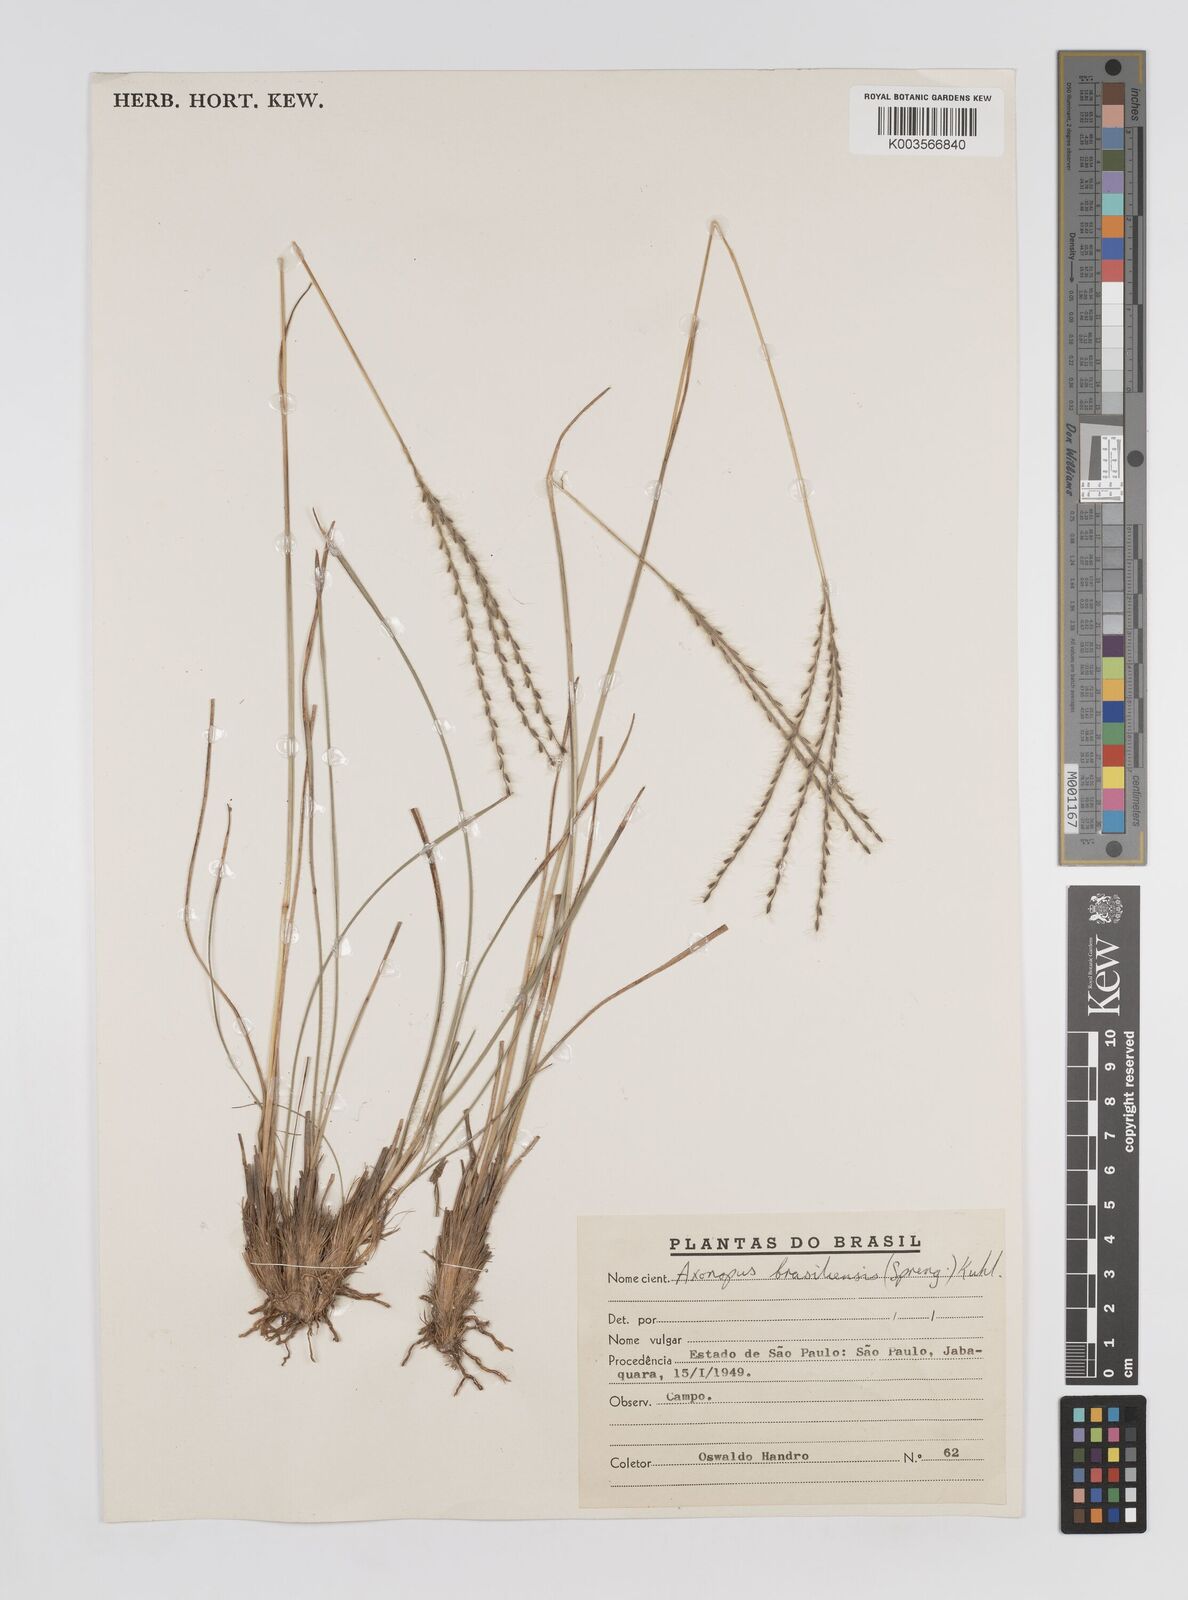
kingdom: Plantae
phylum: Tracheophyta
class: Liliopsida
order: Poales
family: Poaceae
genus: Axonopus
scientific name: Axonopus brasiliensis
